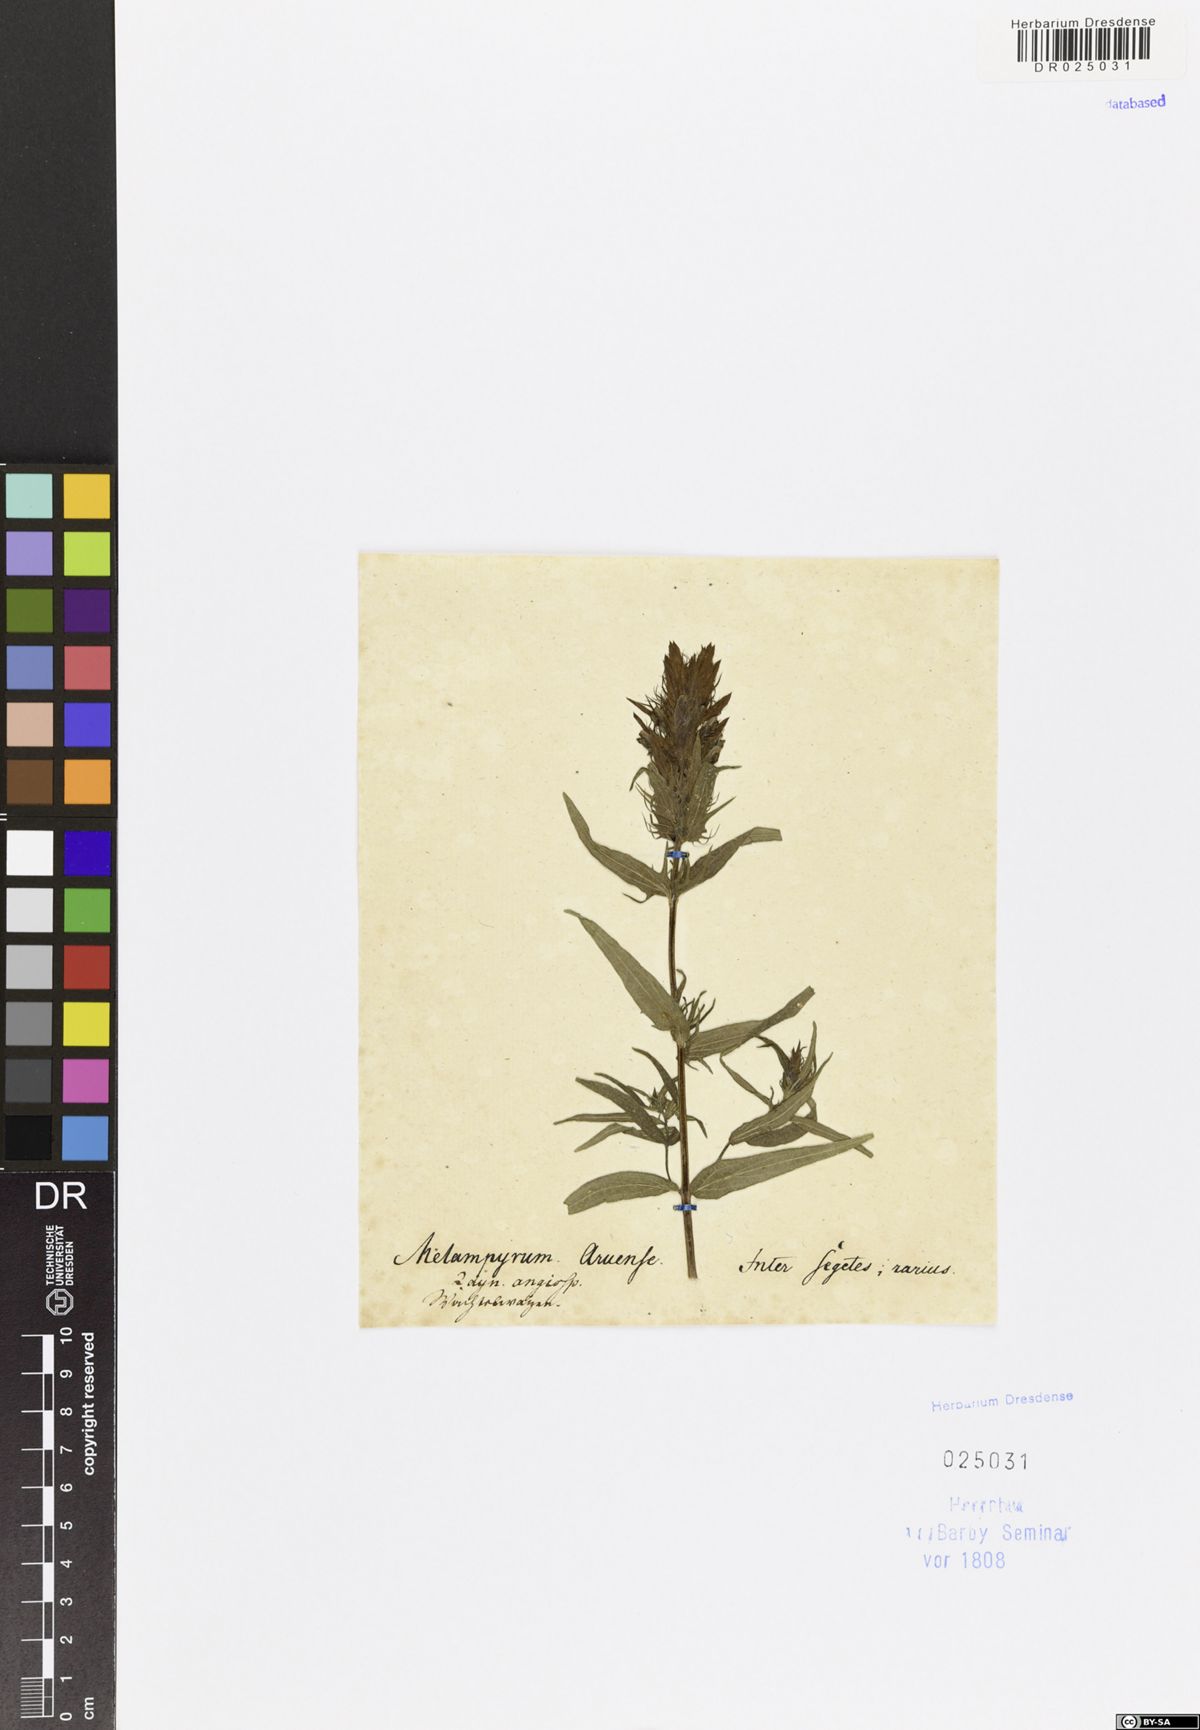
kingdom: Plantae
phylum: Tracheophyta
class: Magnoliopsida
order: Lamiales
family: Orobanchaceae
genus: Melampyrum
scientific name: Melampyrum arvense
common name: Field cow-wheat
